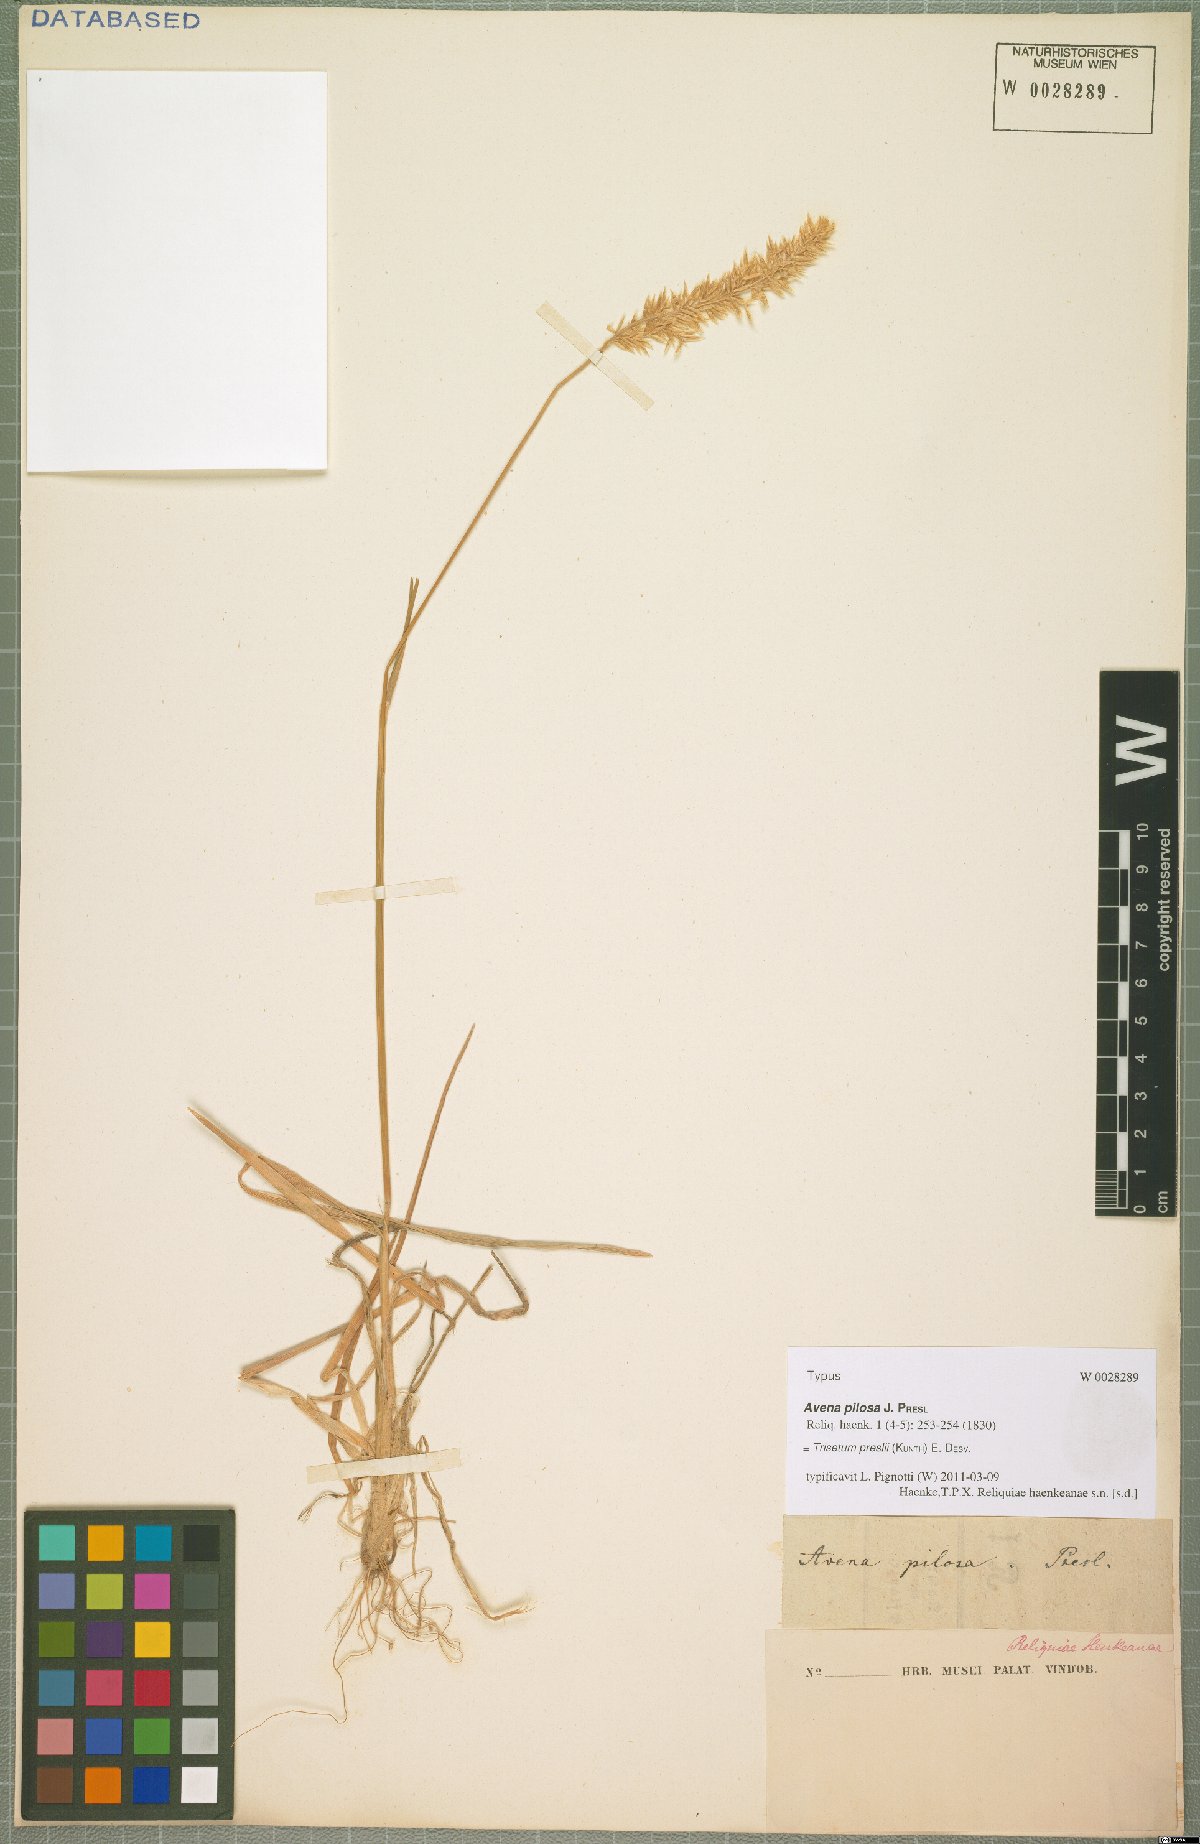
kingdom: Plantae
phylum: Tracheophyta
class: Liliopsida
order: Poales
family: Poaceae
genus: Koeleria
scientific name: Koeleria preslii
